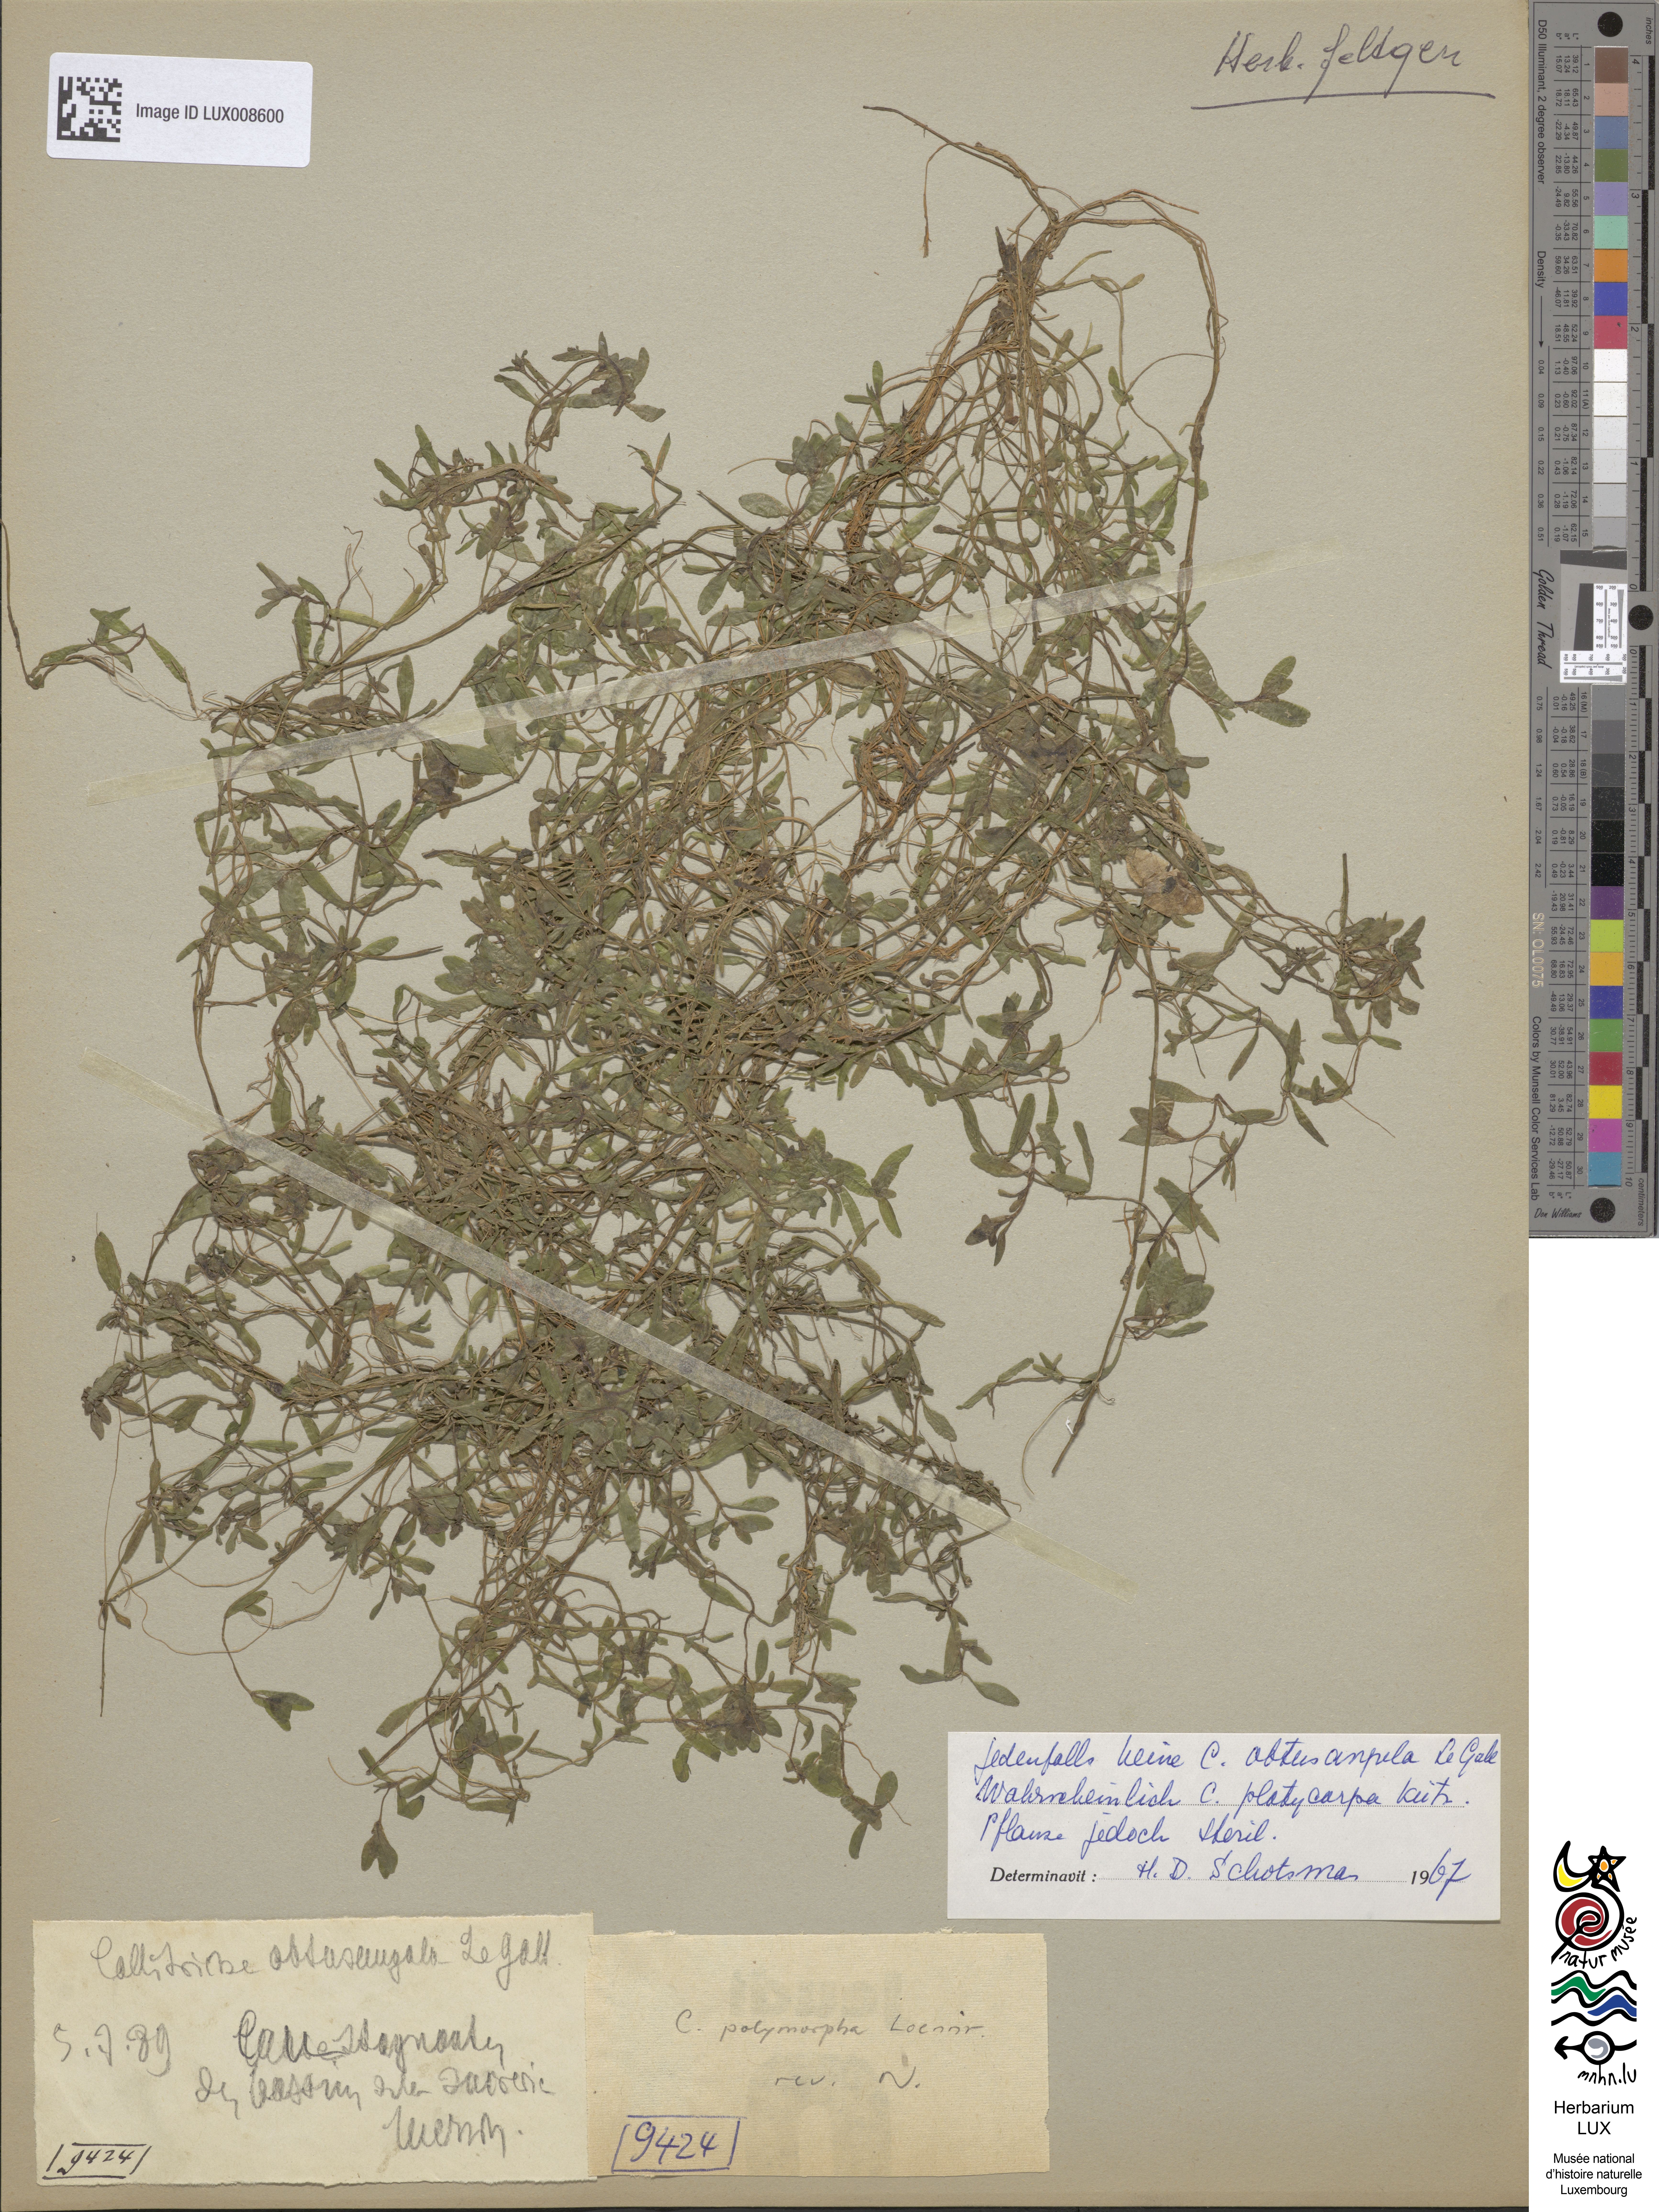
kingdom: Plantae
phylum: Tracheophyta
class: Magnoliopsida
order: Lamiales
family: Plantaginaceae
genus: Callitriche
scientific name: Callitriche obtusangula
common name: Blunt-fruited water-starwort
